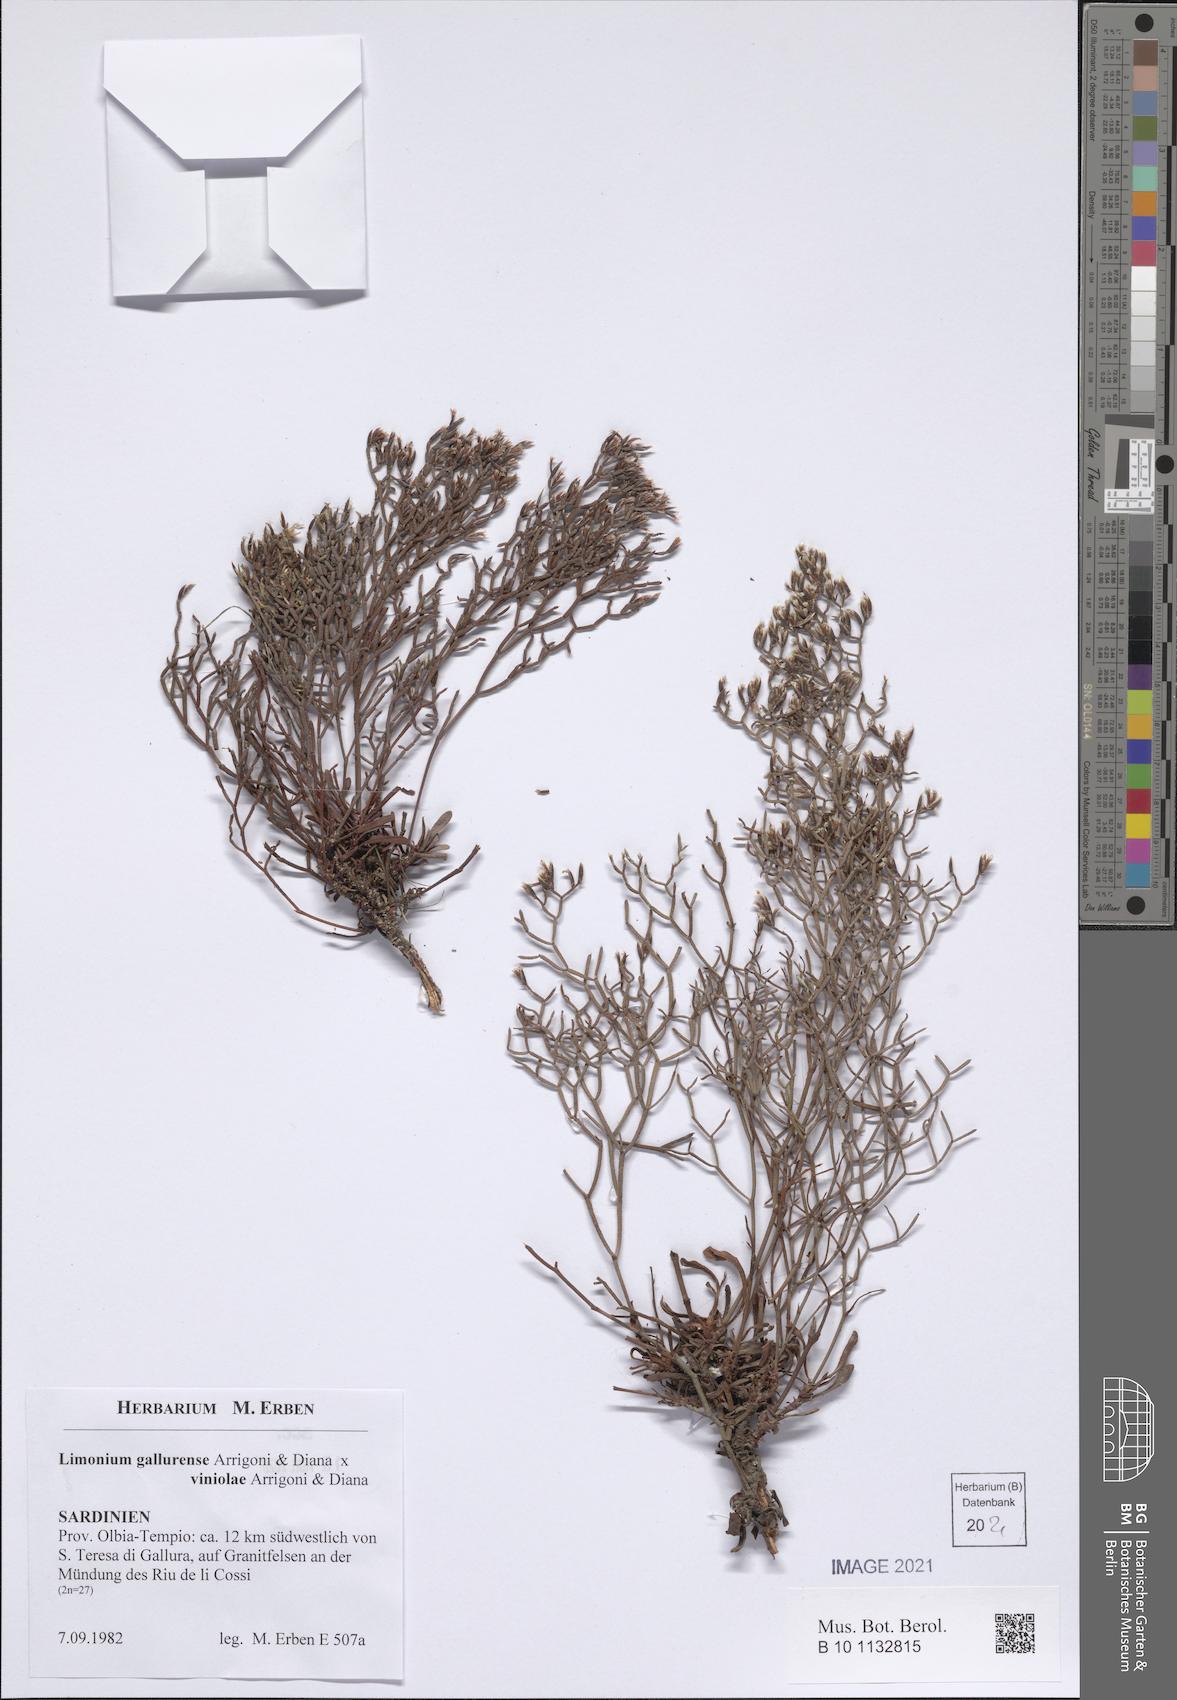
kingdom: Plantae
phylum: Tracheophyta
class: Magnoliopsida
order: Caryophyllales
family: Plumbaginaceae
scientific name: Plumbaginaceae
